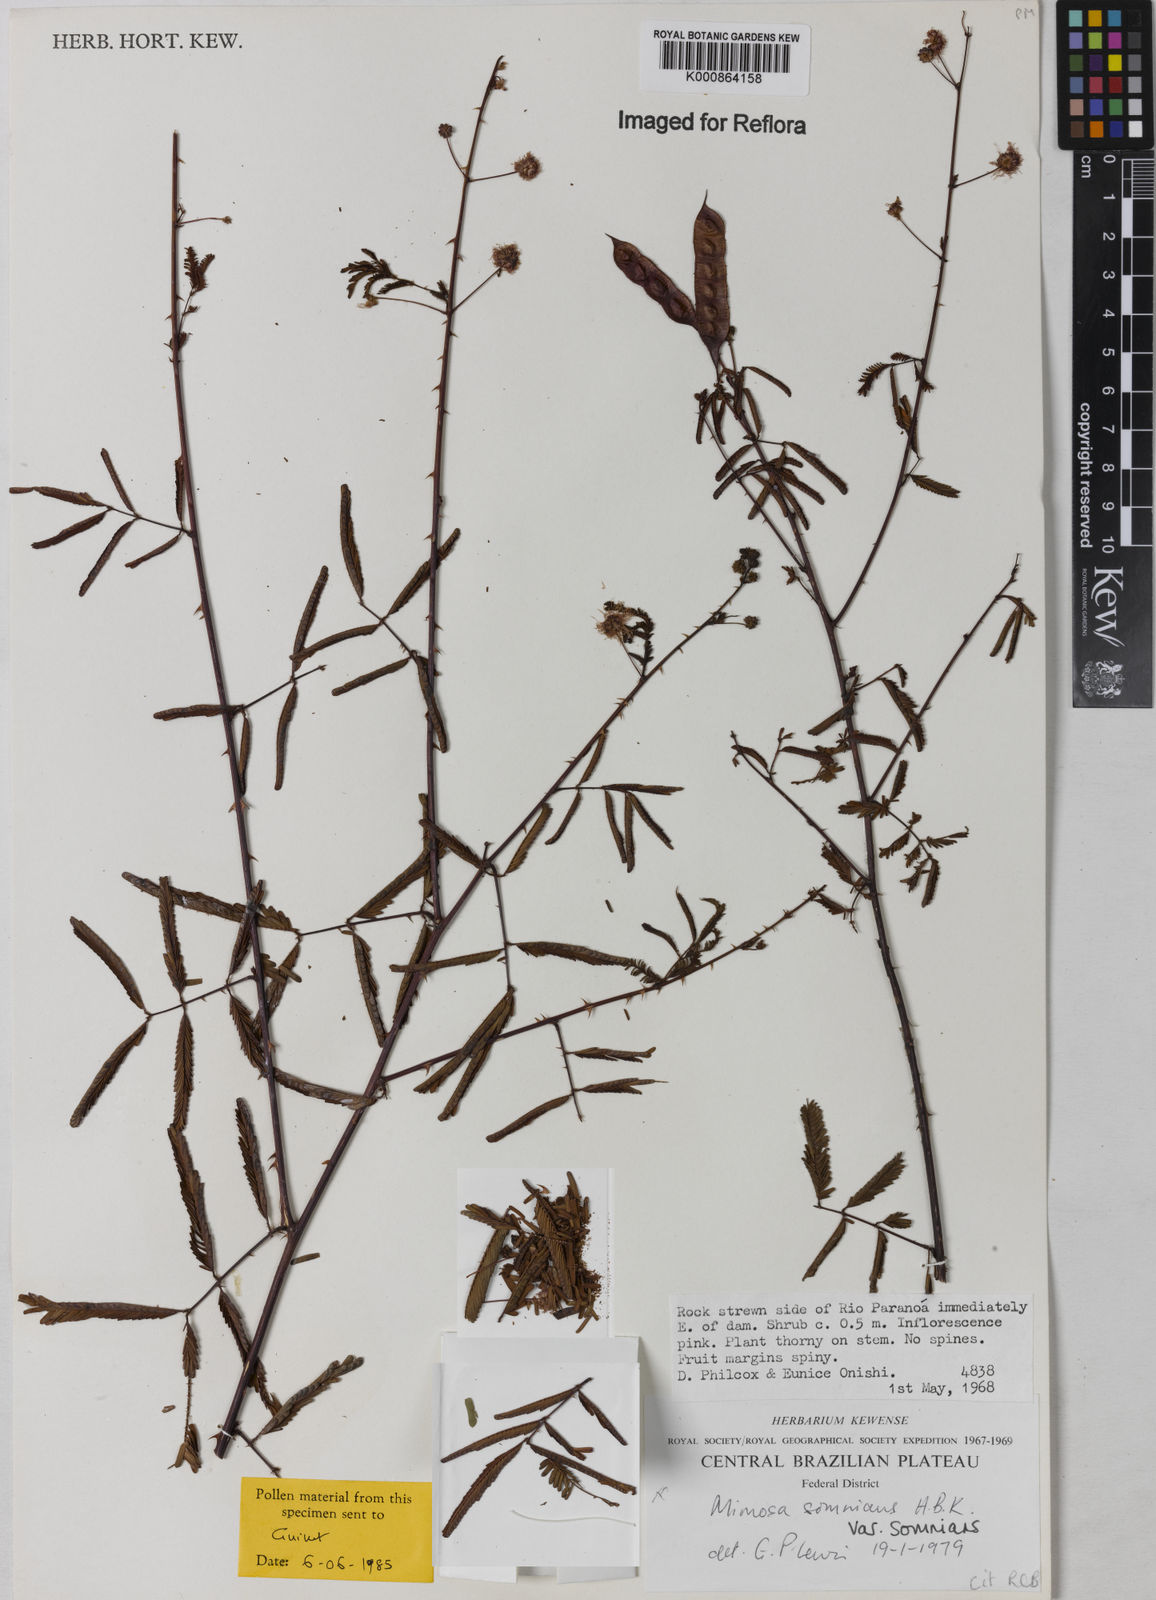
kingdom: Plantae
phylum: Tracheophyta
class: Magnoliopsida
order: Fabales
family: Fabaceae
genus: Mimosa
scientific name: Mimosa somnians
